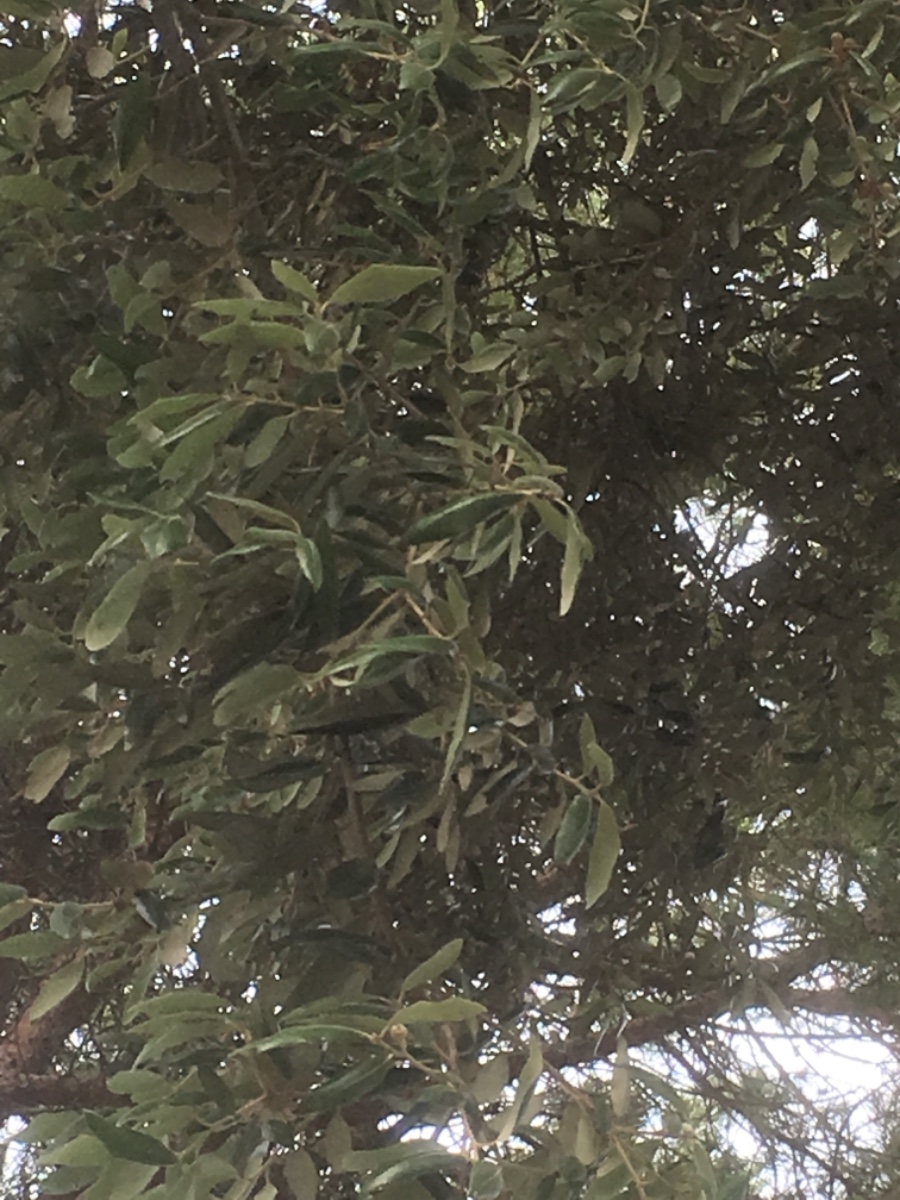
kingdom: Fungi
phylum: Basidiomycota
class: Agaricomycetes
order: Boletales
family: Sclerodermataceae
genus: Pisolithus
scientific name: Pisolithus
